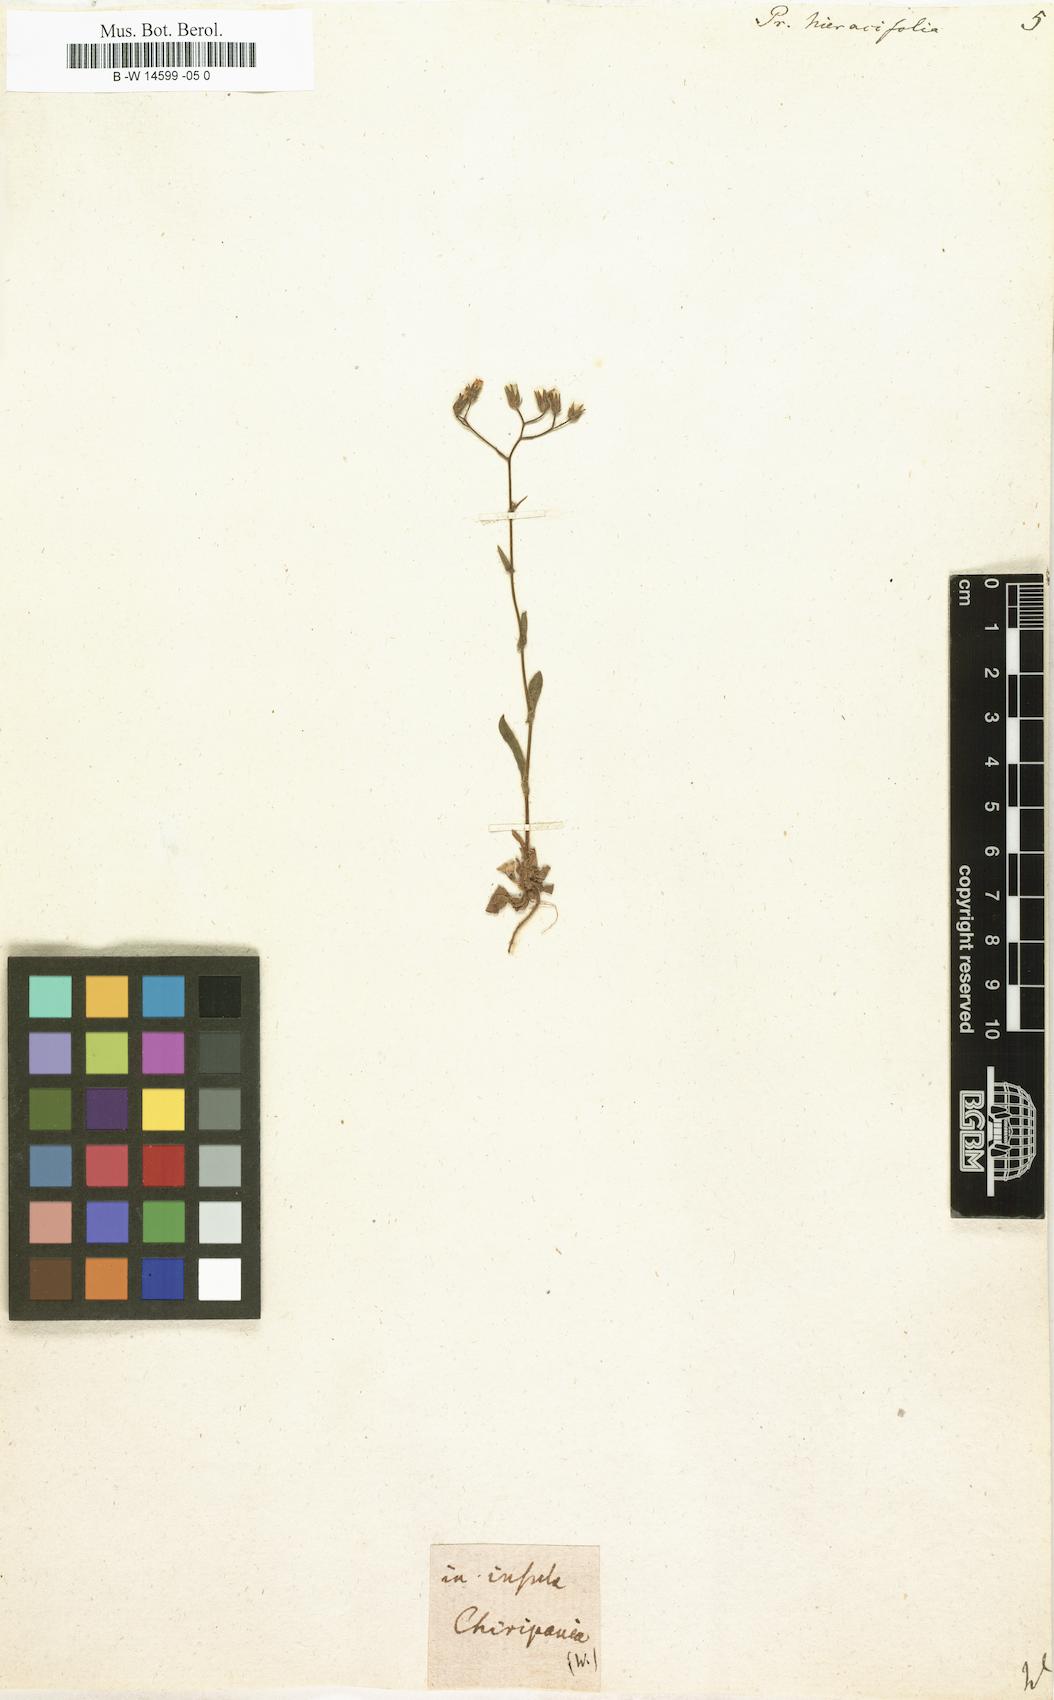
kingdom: Plantae
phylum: Tracheophyta
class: Magnoliopsida
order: Asterales
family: Asteraceae
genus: Crepis
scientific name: Crepis pulchra
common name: Hawk's-beard
